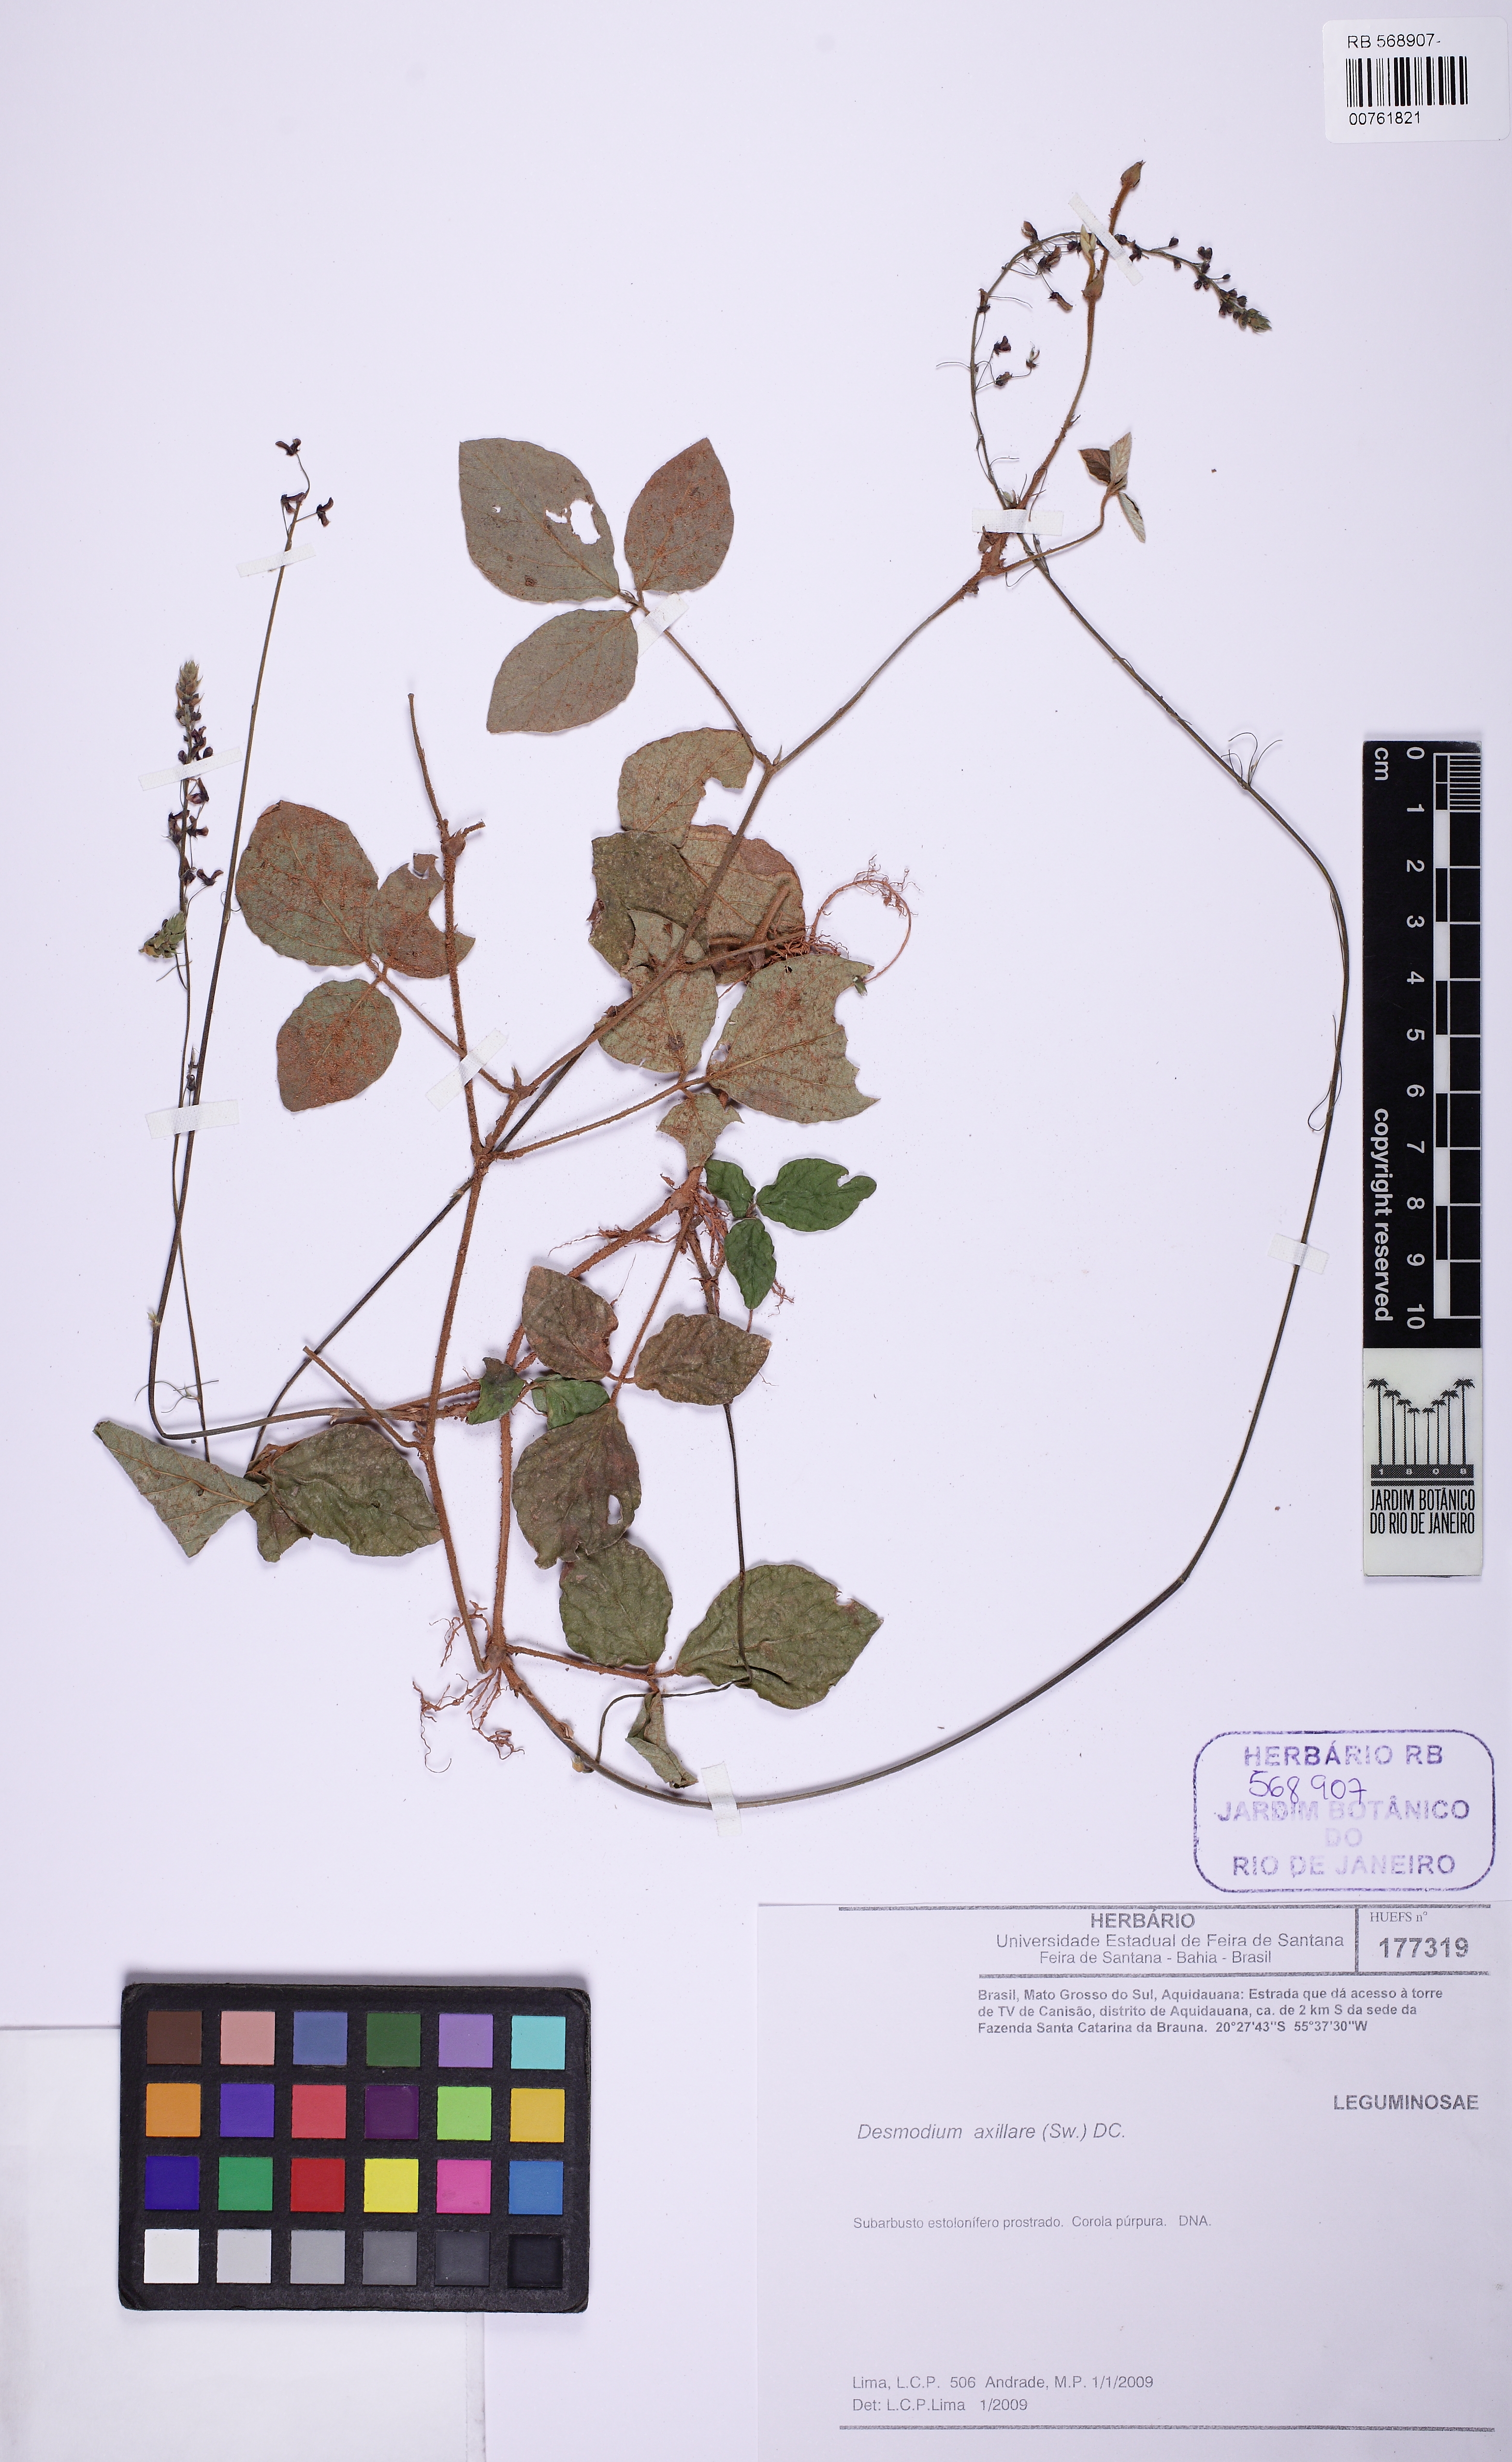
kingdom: Plantae
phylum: Tracheophyta
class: Magnoliopsida
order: Fabales
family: Fabaceae
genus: Desmodium
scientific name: Desmodium axillare
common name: Wire with
